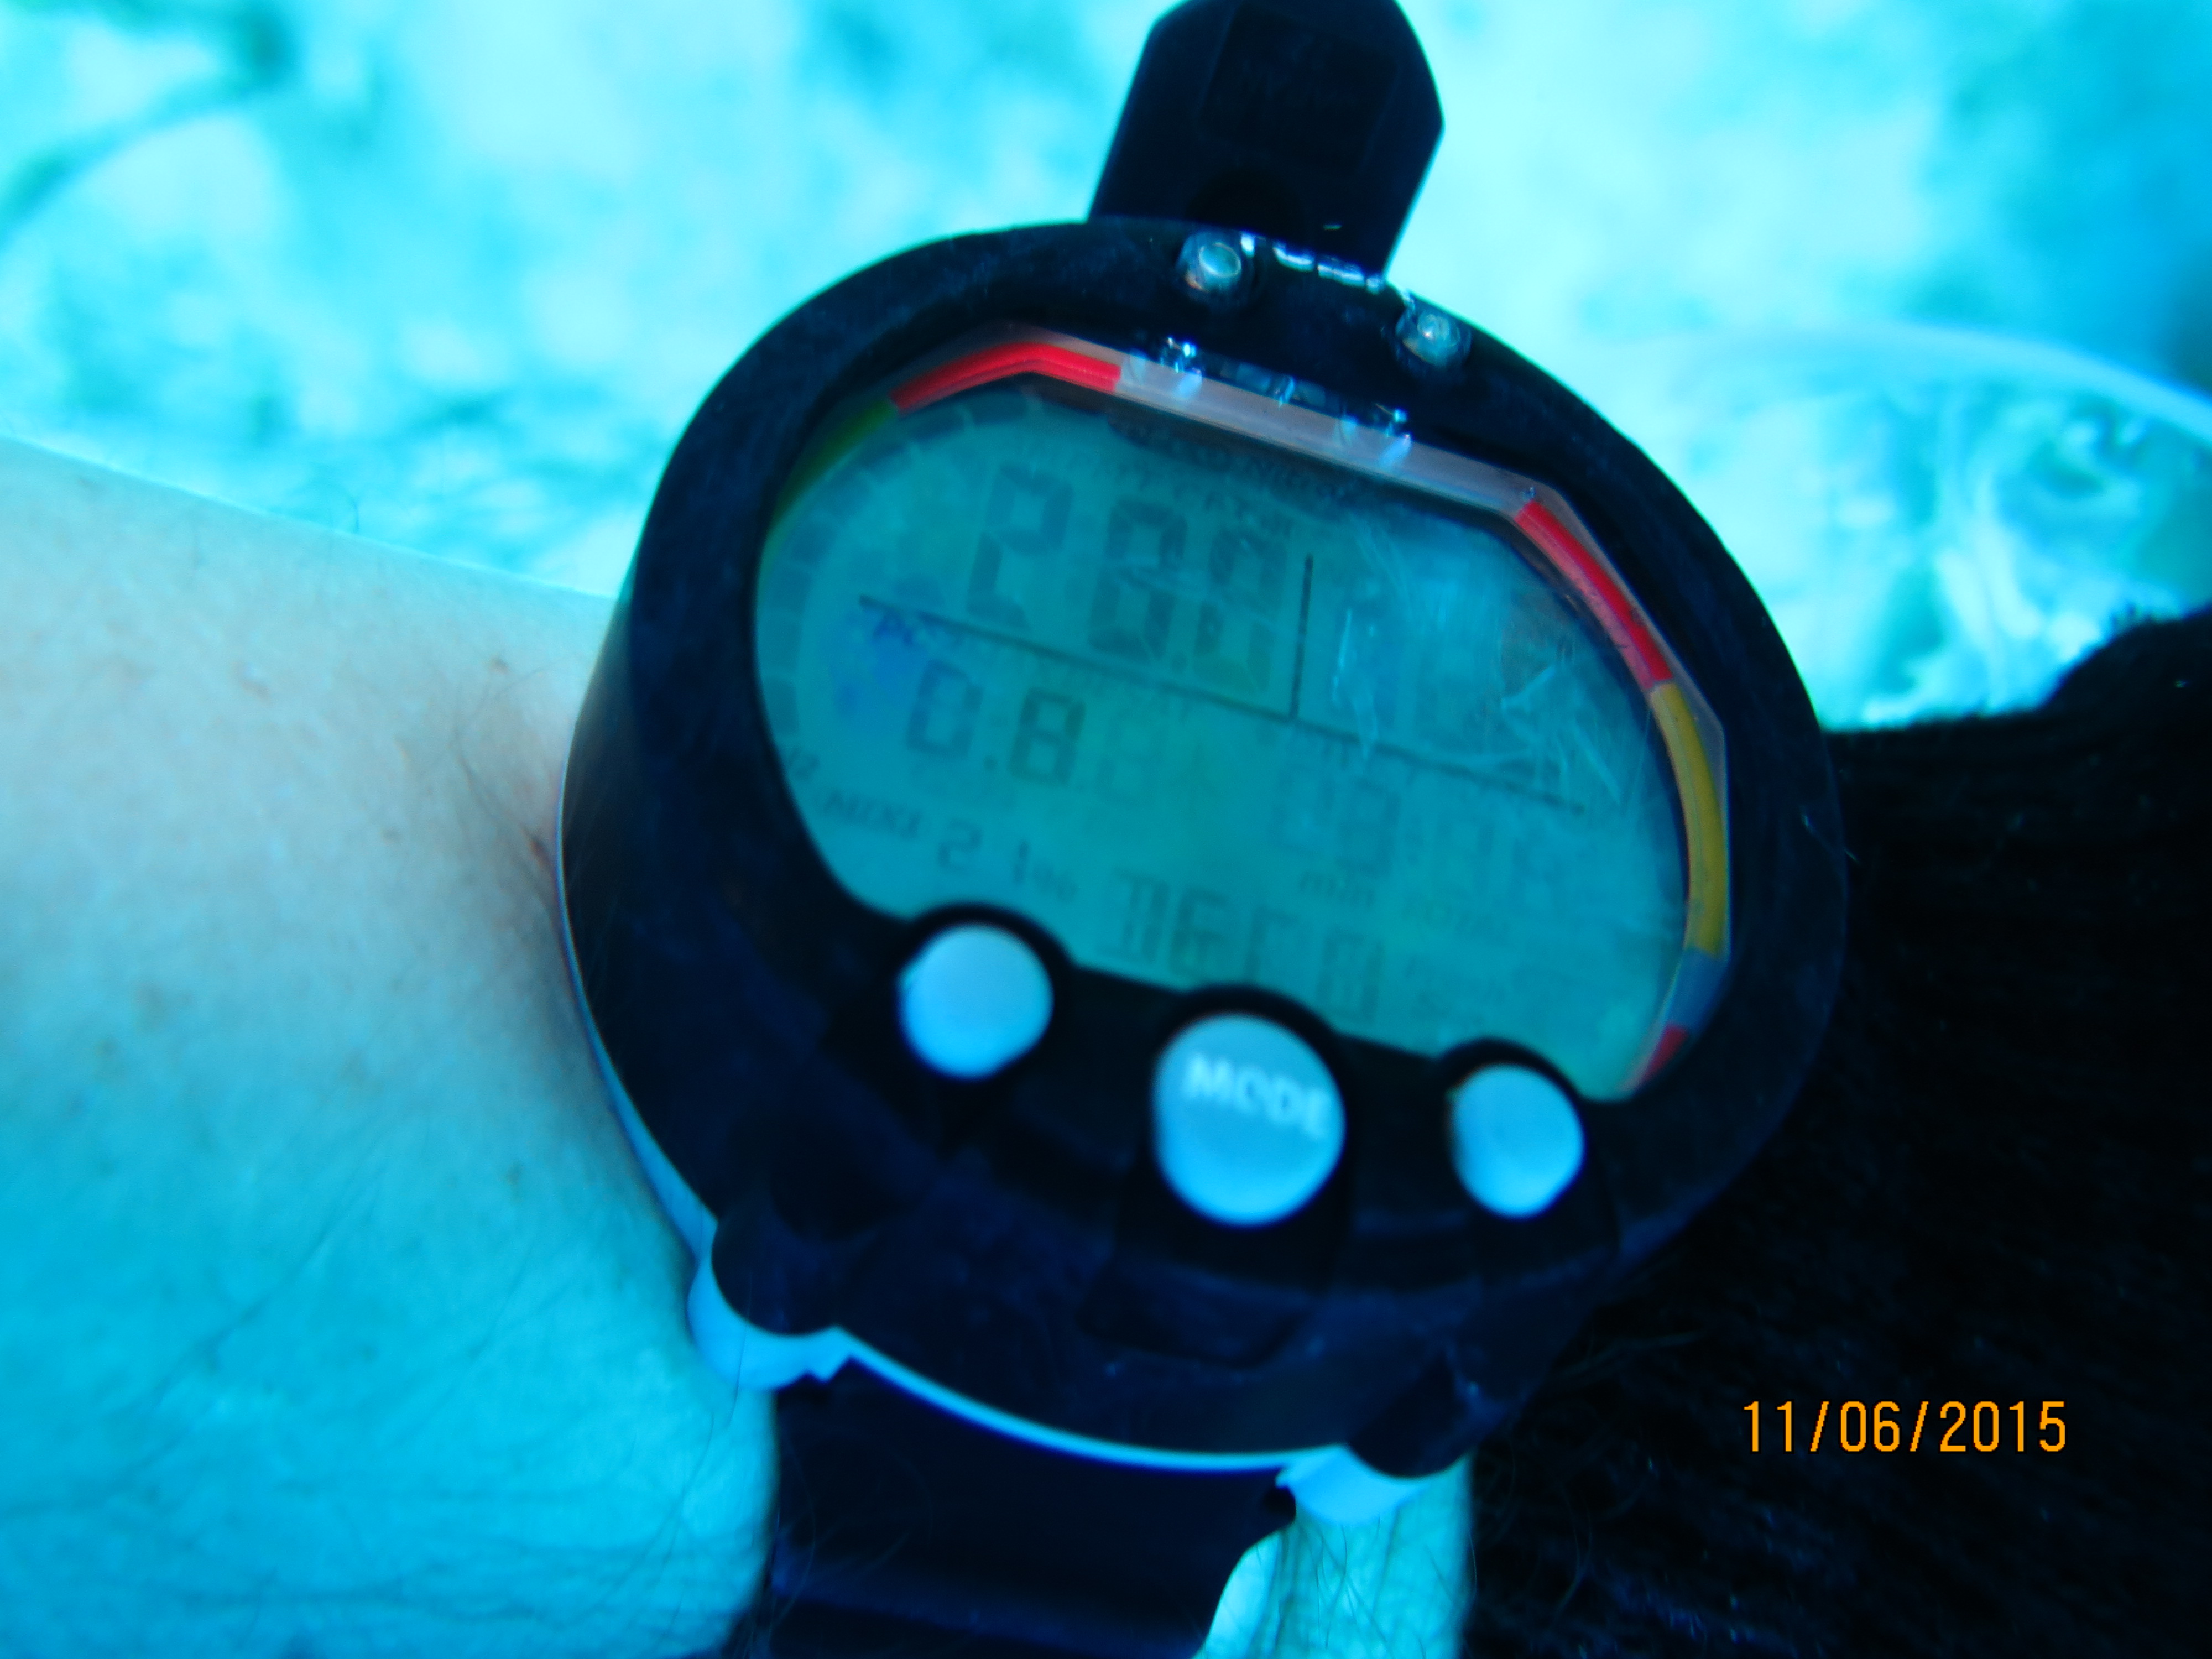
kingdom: Animalia
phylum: Porifera
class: Demospongiae
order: Haplosclerida
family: Callyspongiidae
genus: Callyspongia
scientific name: Callyspongia plicifera
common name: Azure vase sponge
